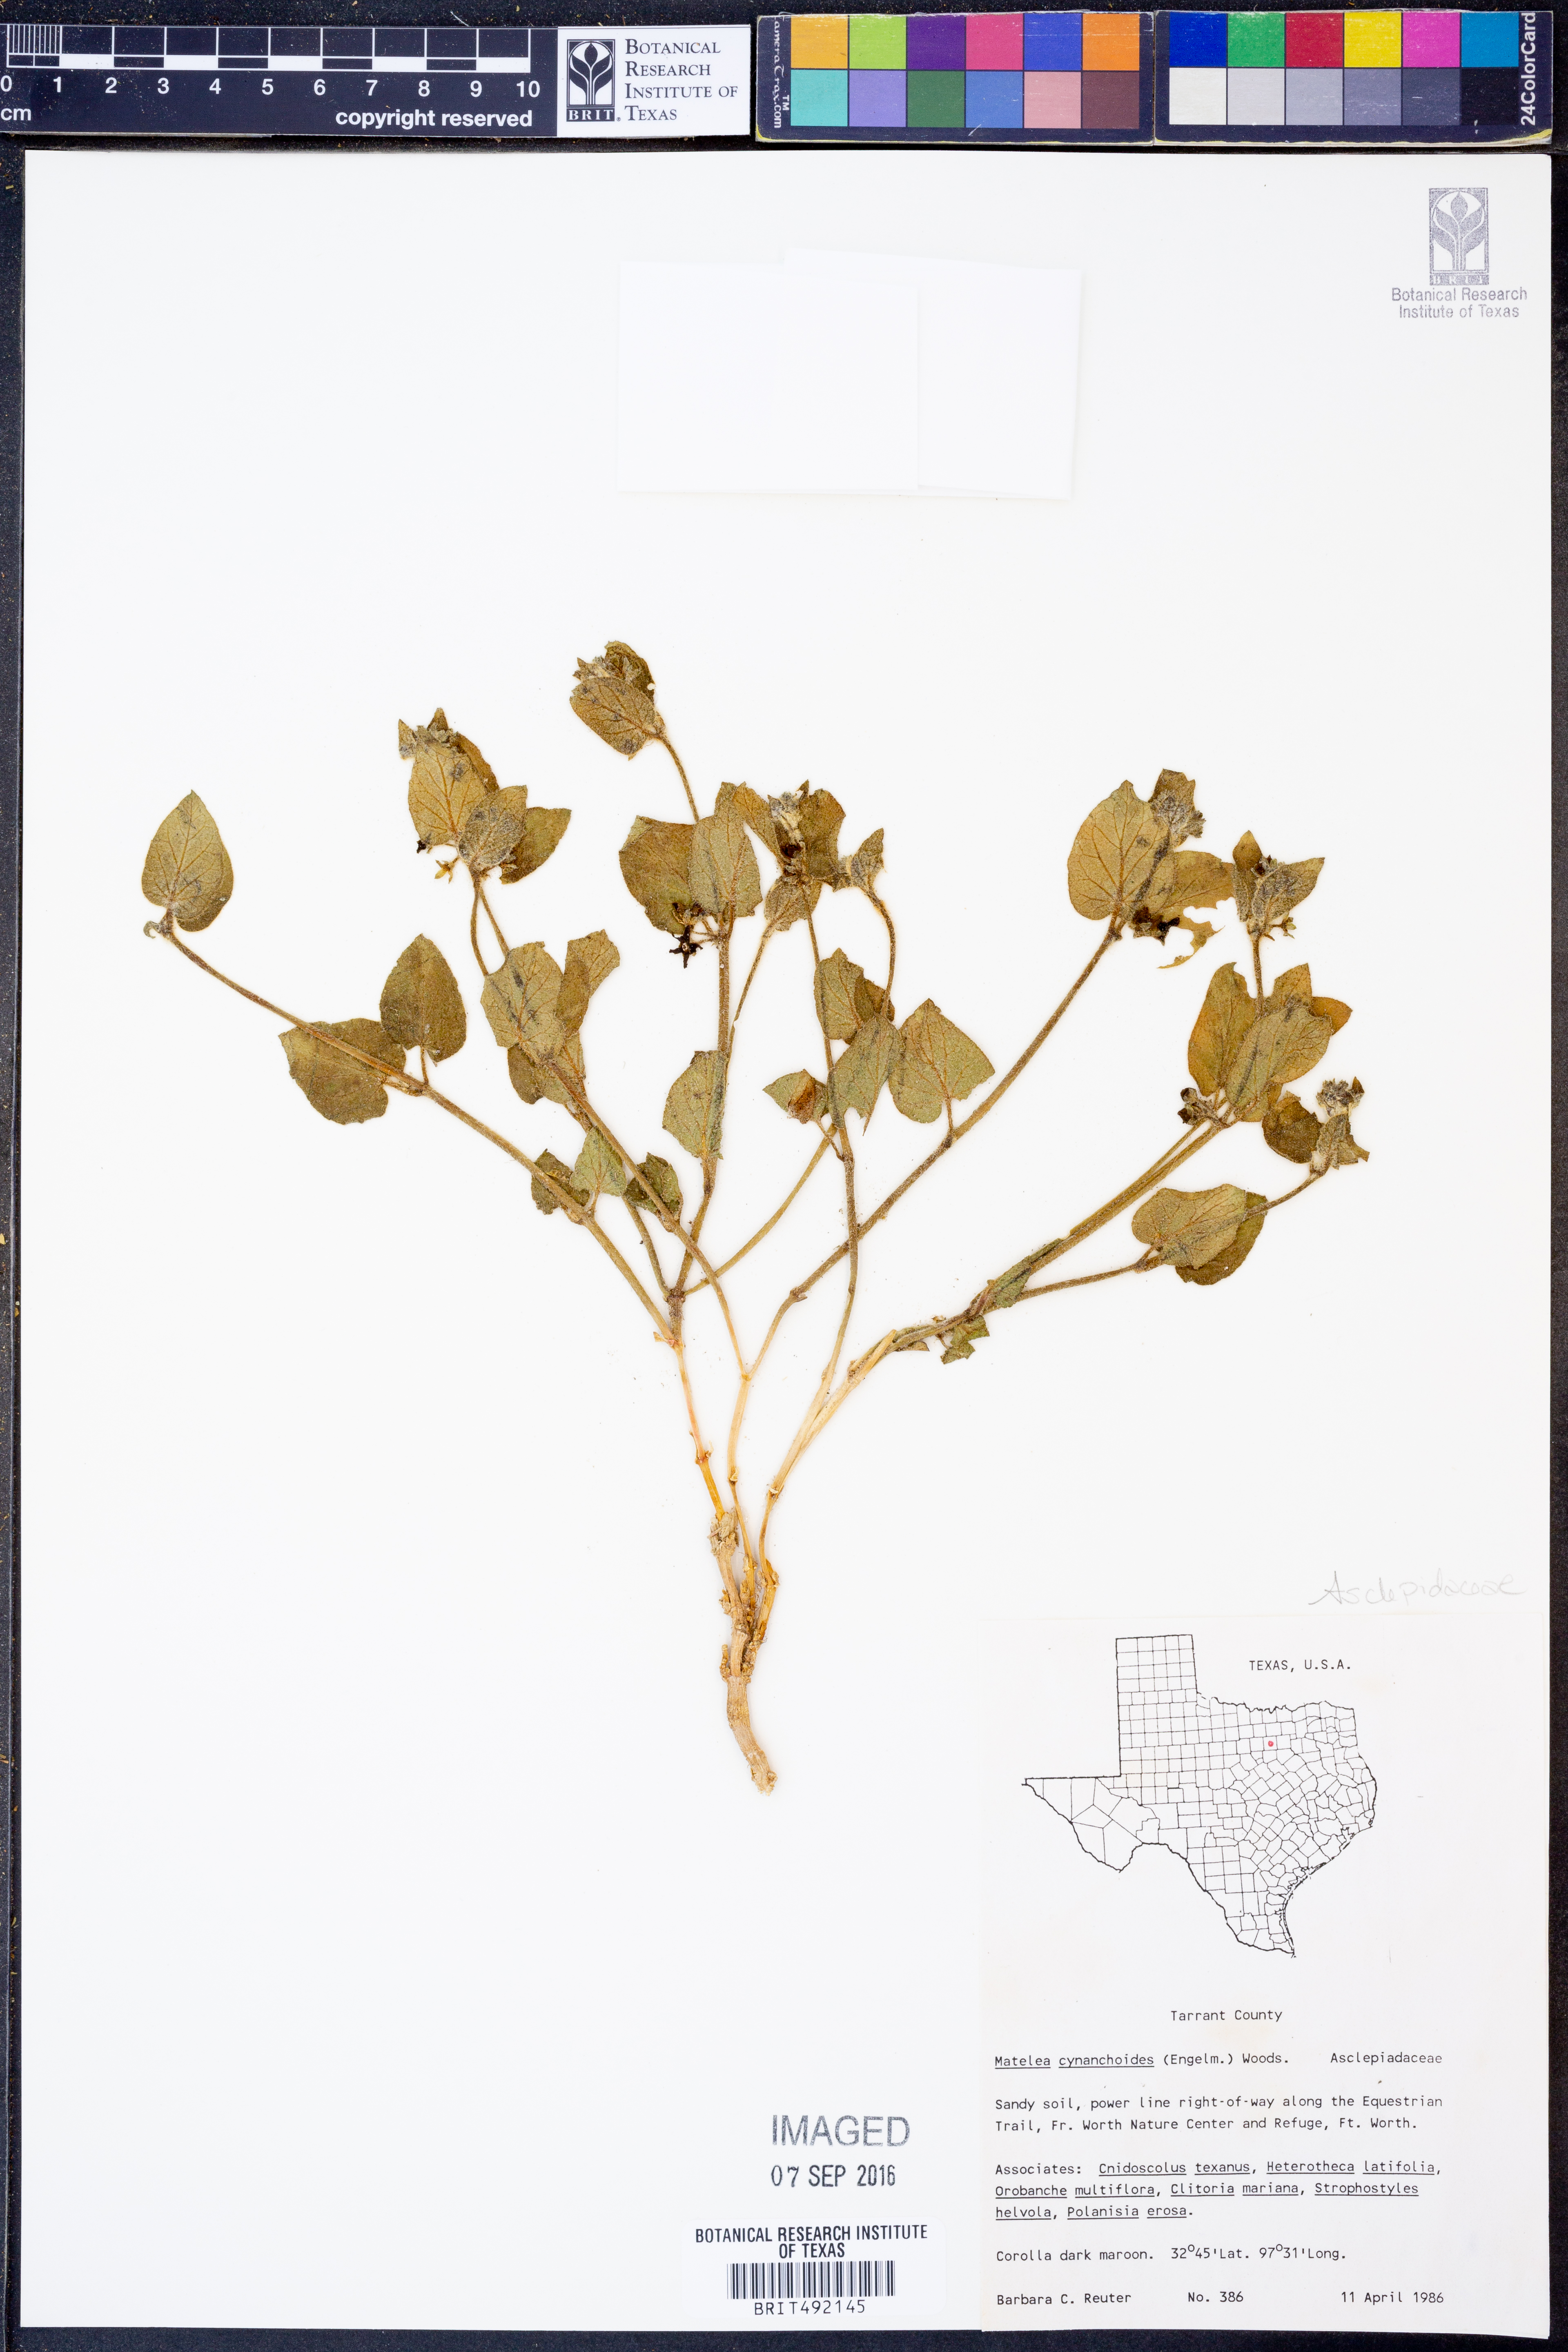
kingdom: Plantae
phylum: Tracheophyta
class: Magnoliopsida
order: Gentianales
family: Apocynaceae
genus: Matelea
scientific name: Matelea cynanchoides
